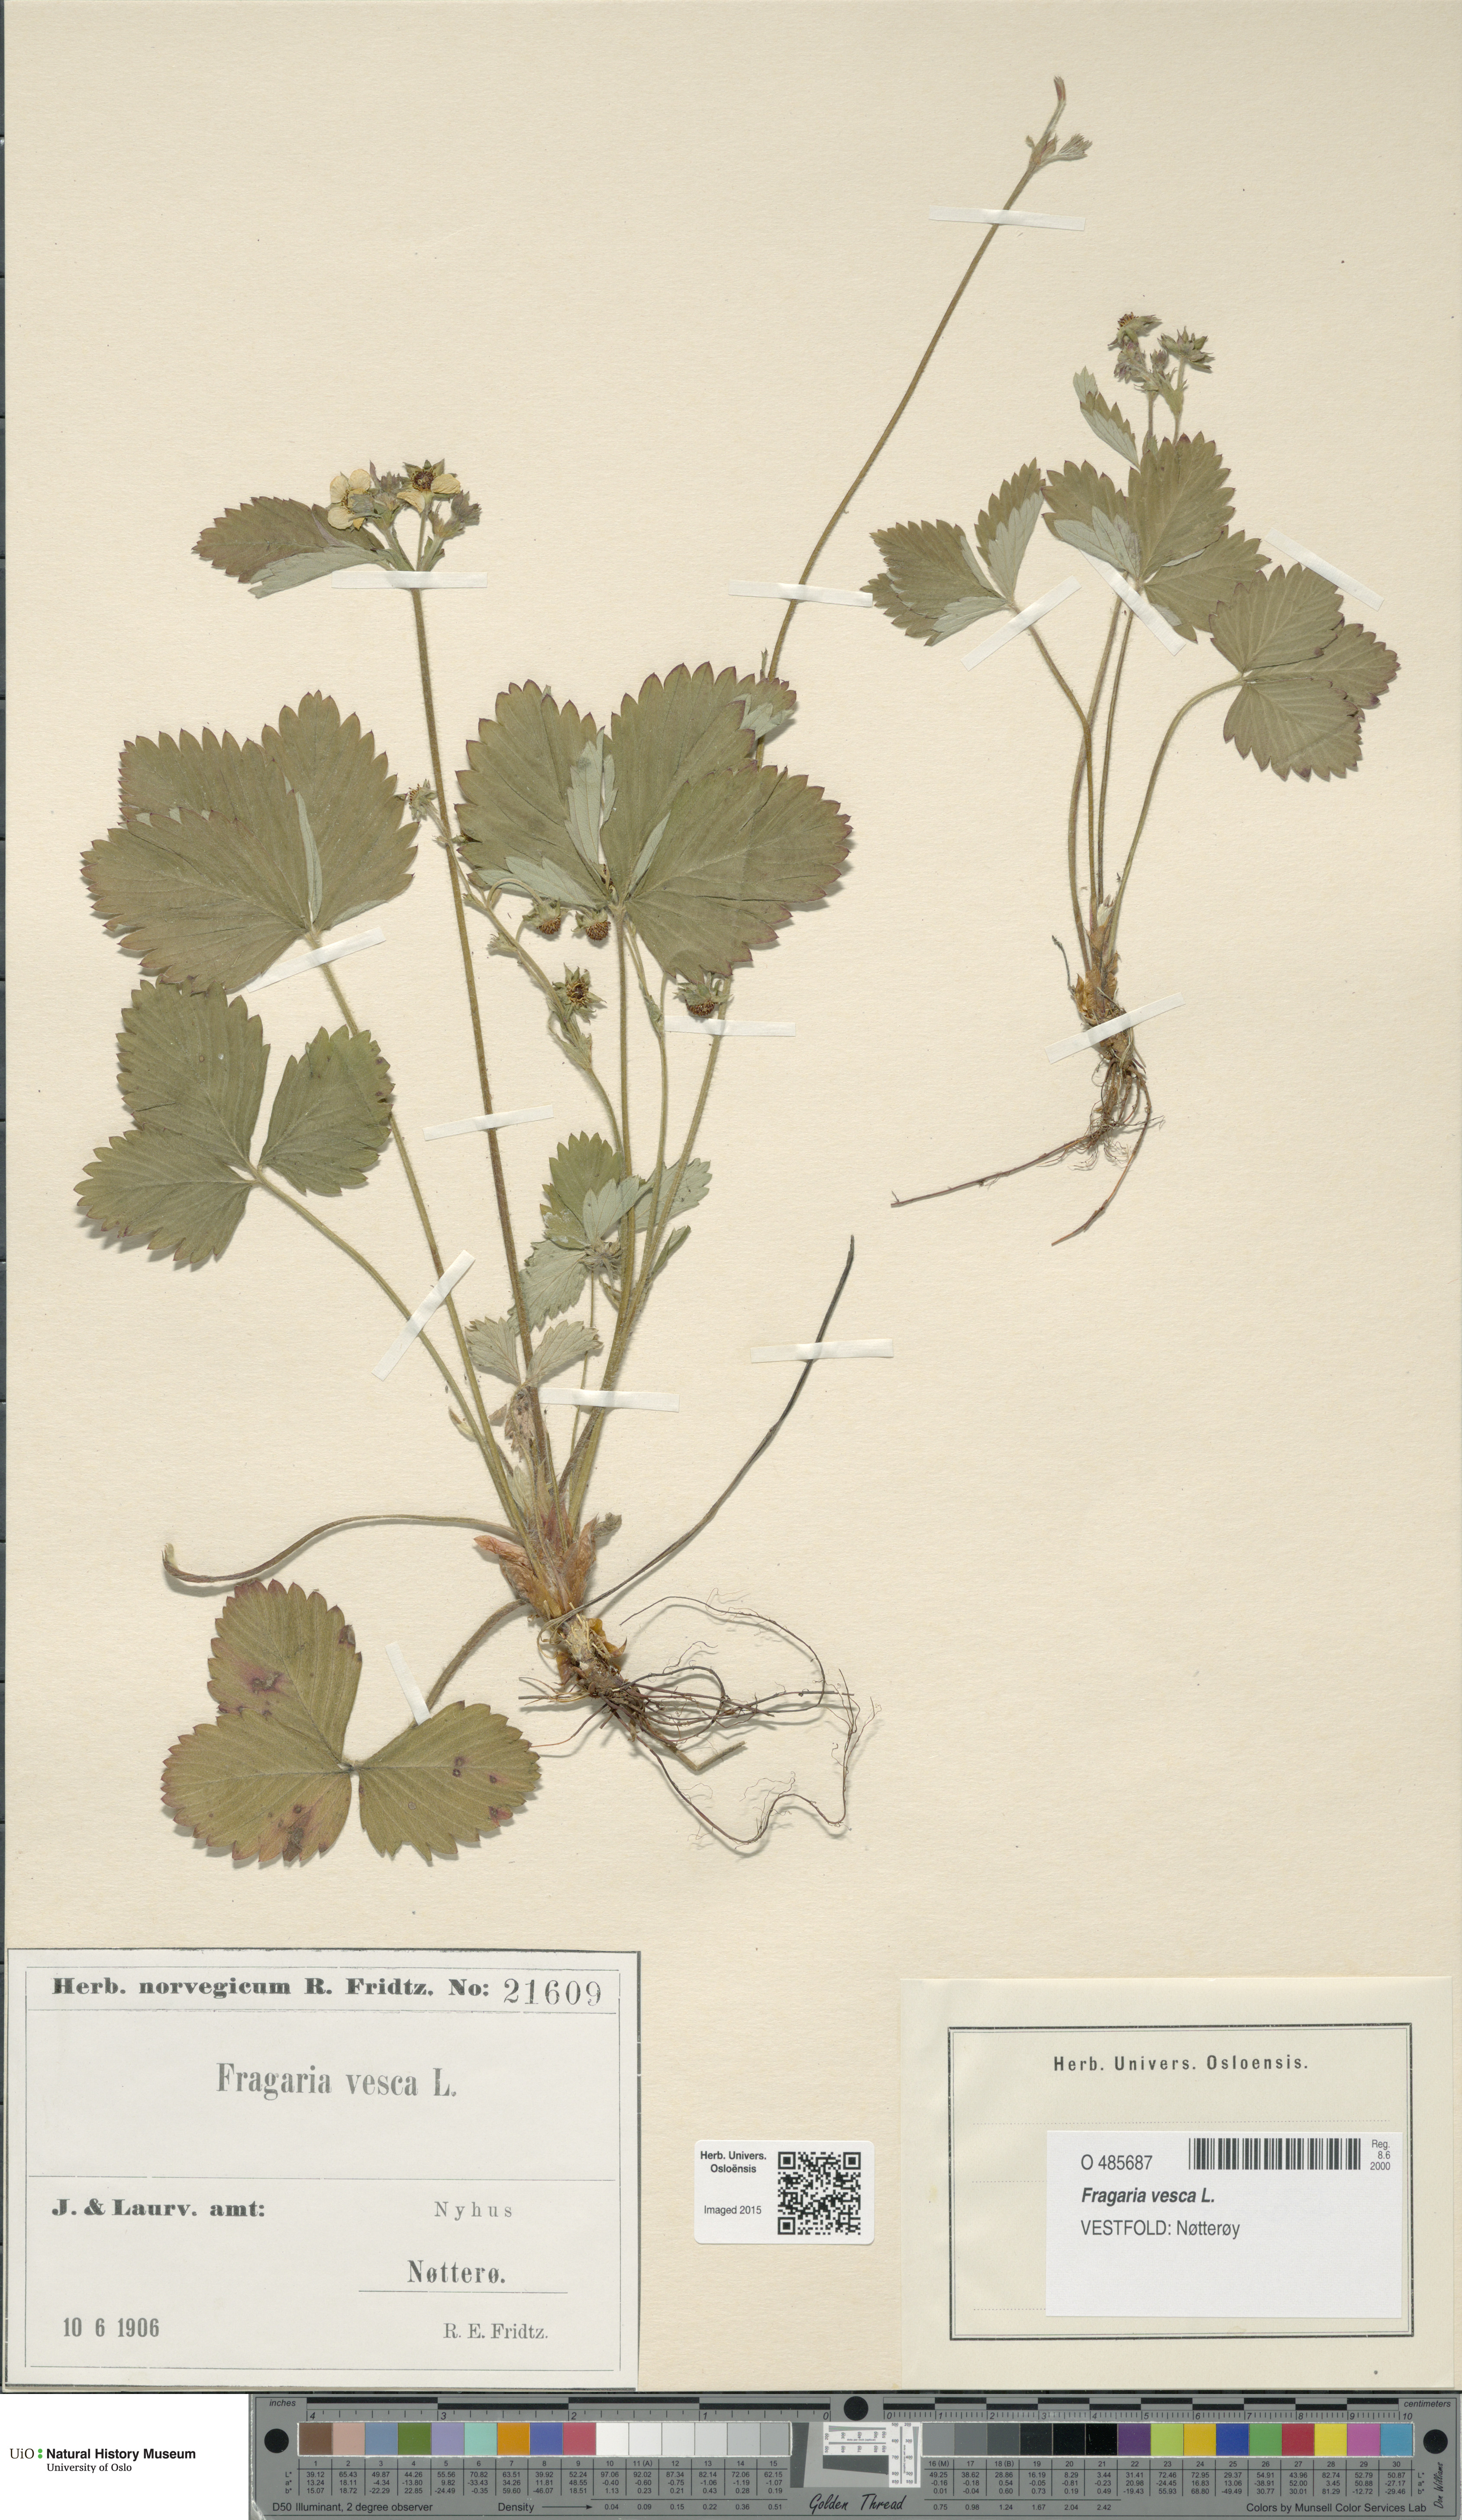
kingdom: Plantae
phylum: Tracheophyta
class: Magnoliopsida
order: Rosales
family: Rosaceae
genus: Fragaria
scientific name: Fragaria vesca
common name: Wild strawberry
